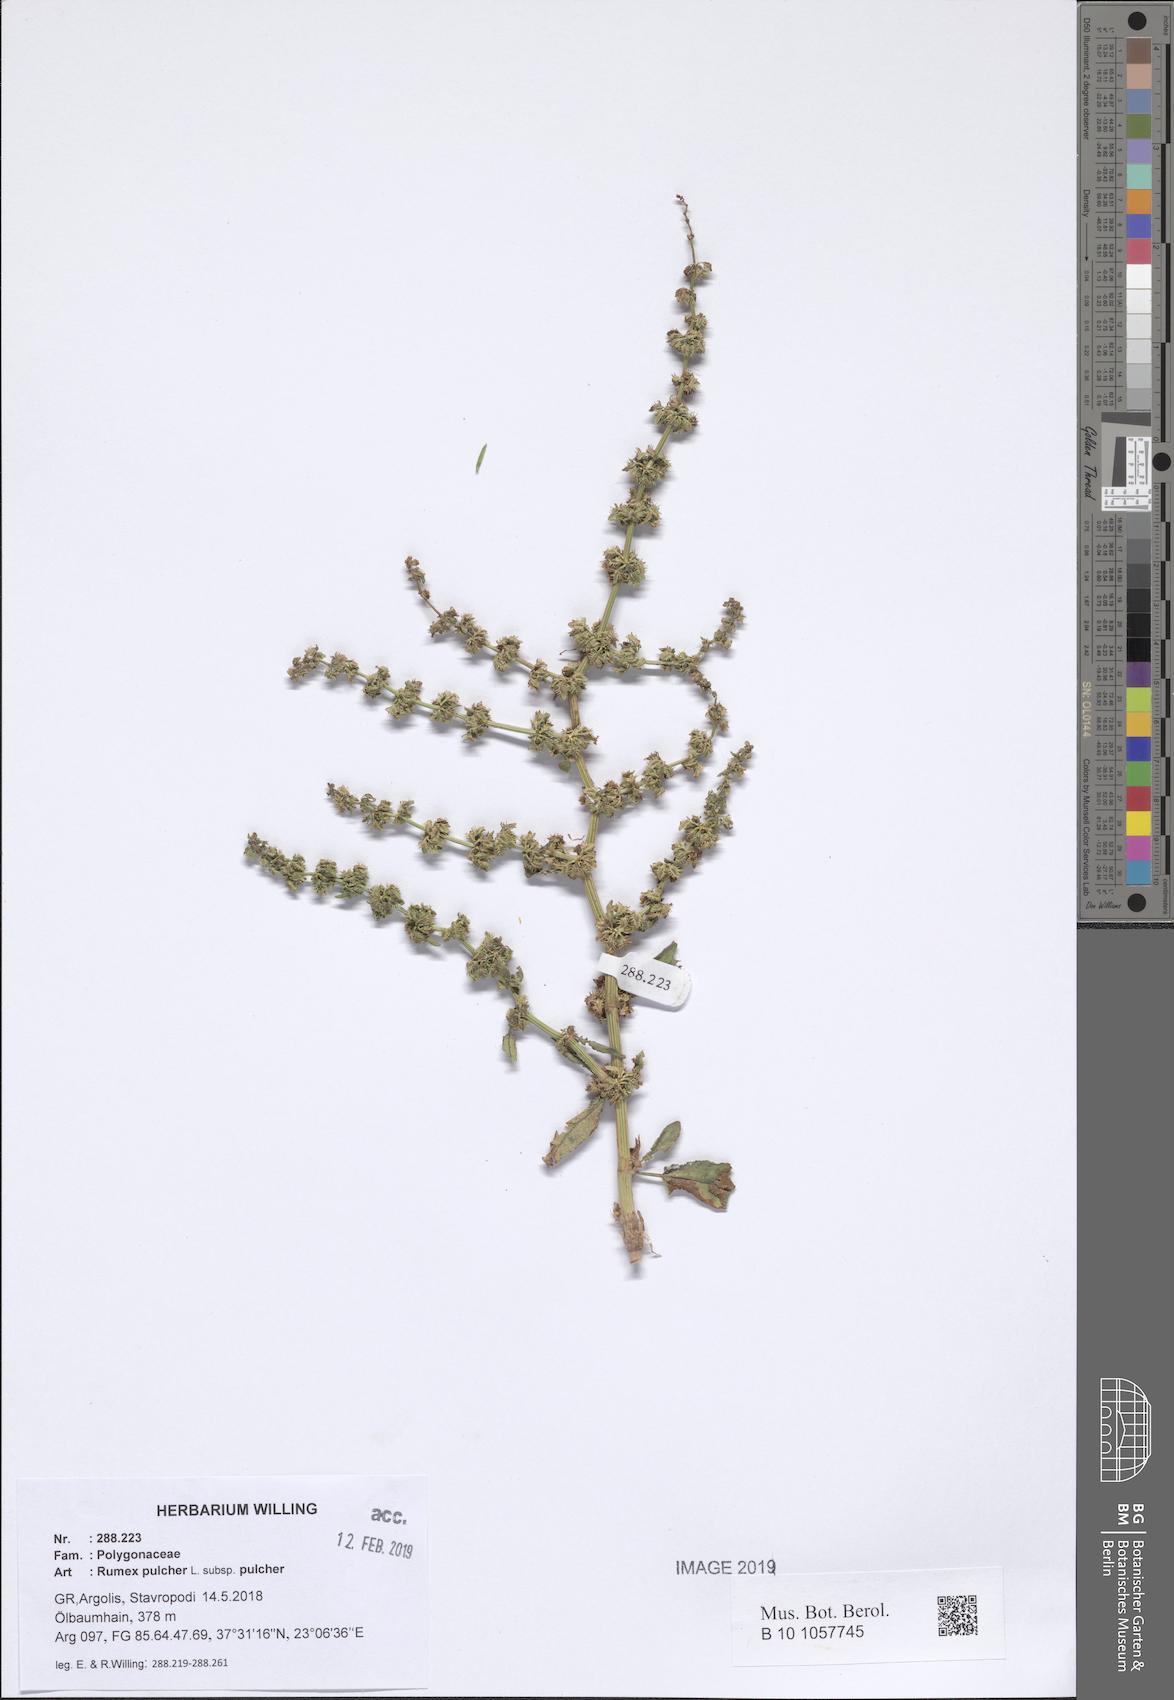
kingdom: Plantae
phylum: Tracheophyta
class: Magnoliopsida
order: Caryophyllales
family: Polygonaceae
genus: Rumex
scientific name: Rumex pulcher
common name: Fiddle dock
